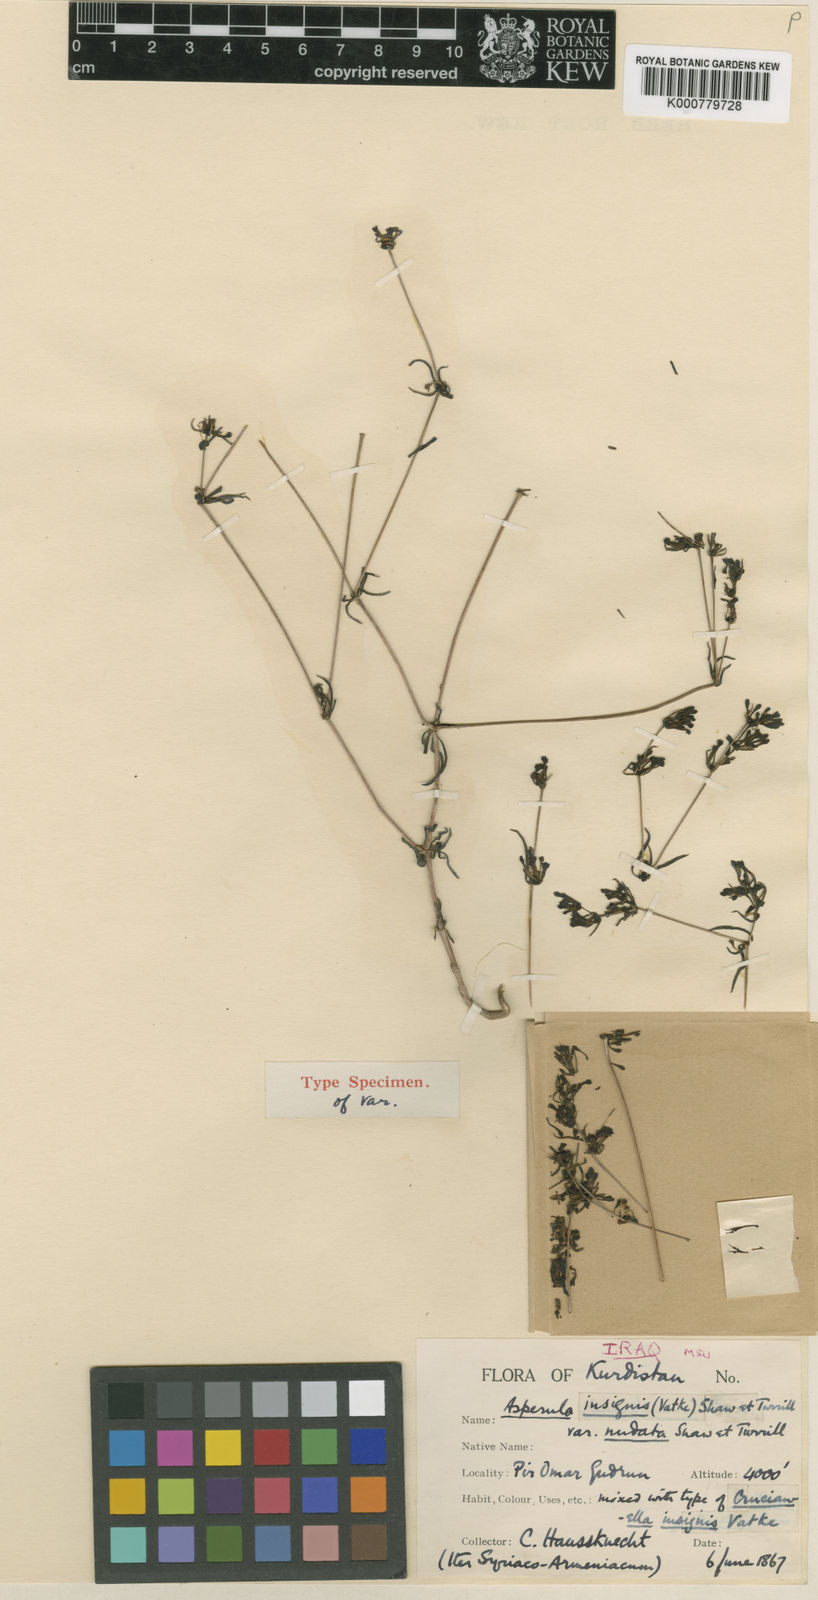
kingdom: Plantae
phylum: Tracheophyta
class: Magnoliopsida
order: Gentianales
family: Rubiaceae
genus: Asperula
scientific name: Asperula
